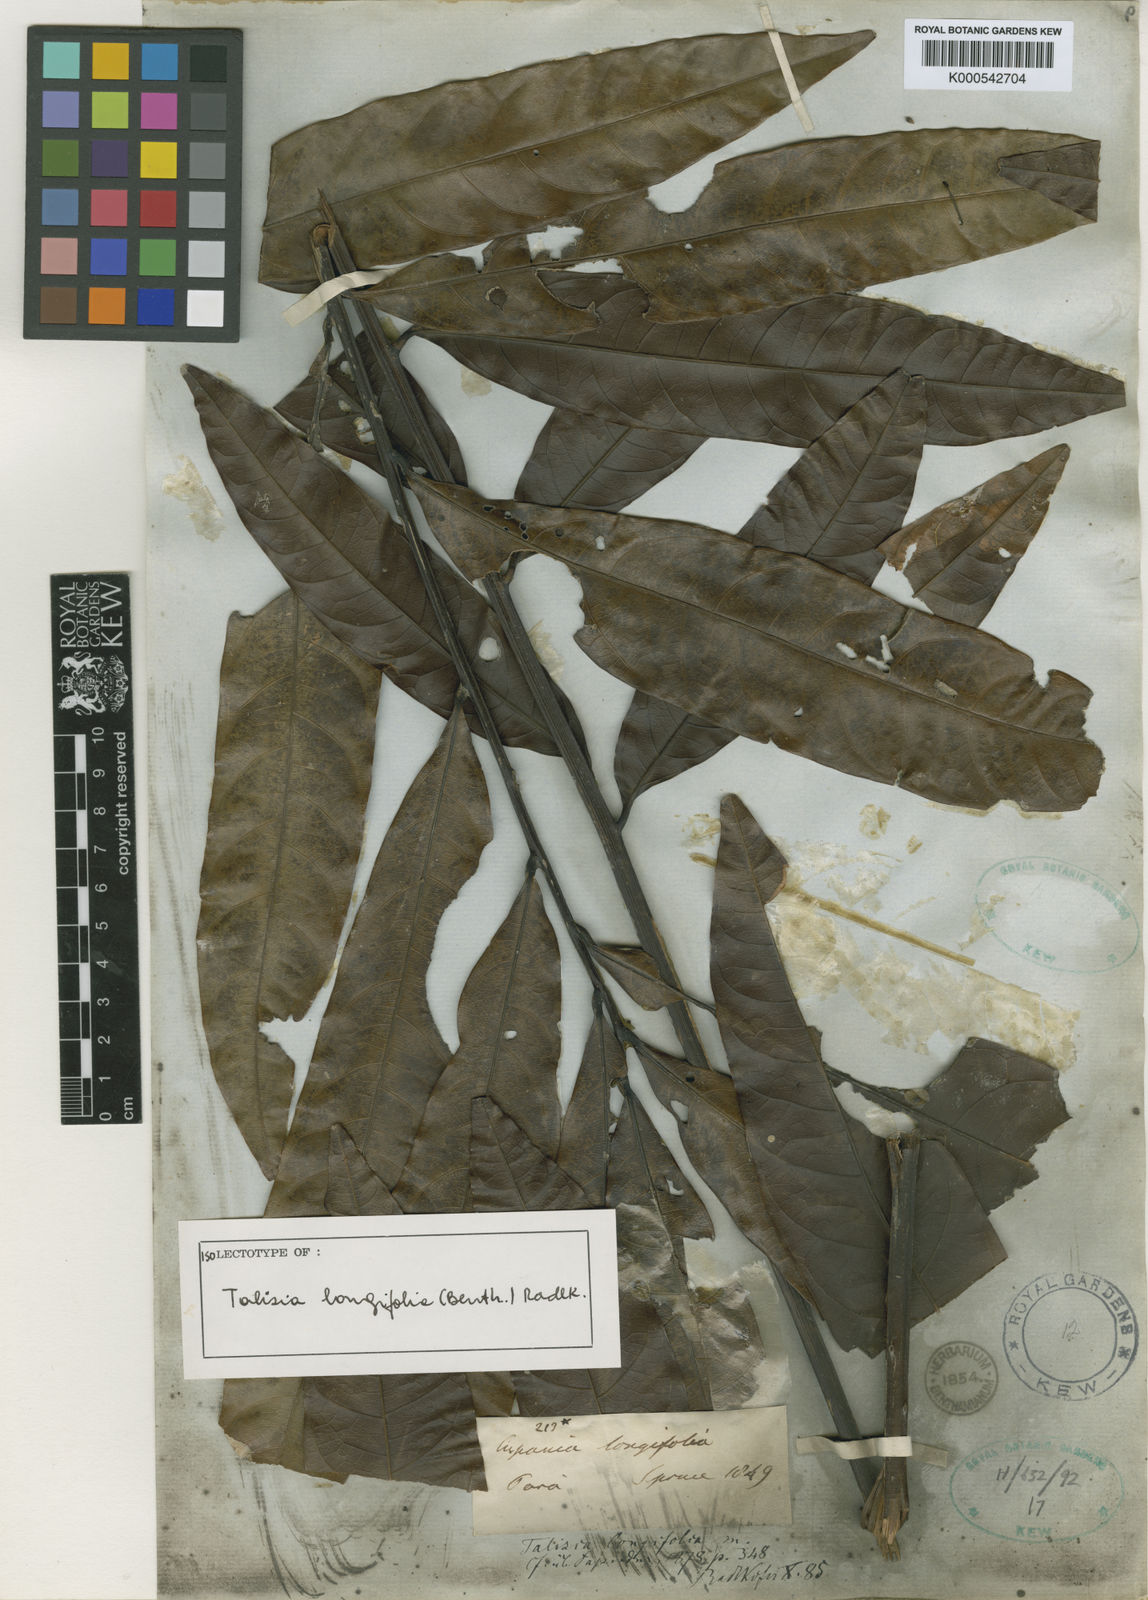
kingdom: Plantae
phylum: Tracheophyta
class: Magnoliopsida
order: Sapindales
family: Sapindaceae
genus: Talisia
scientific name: Talisia longifolia
